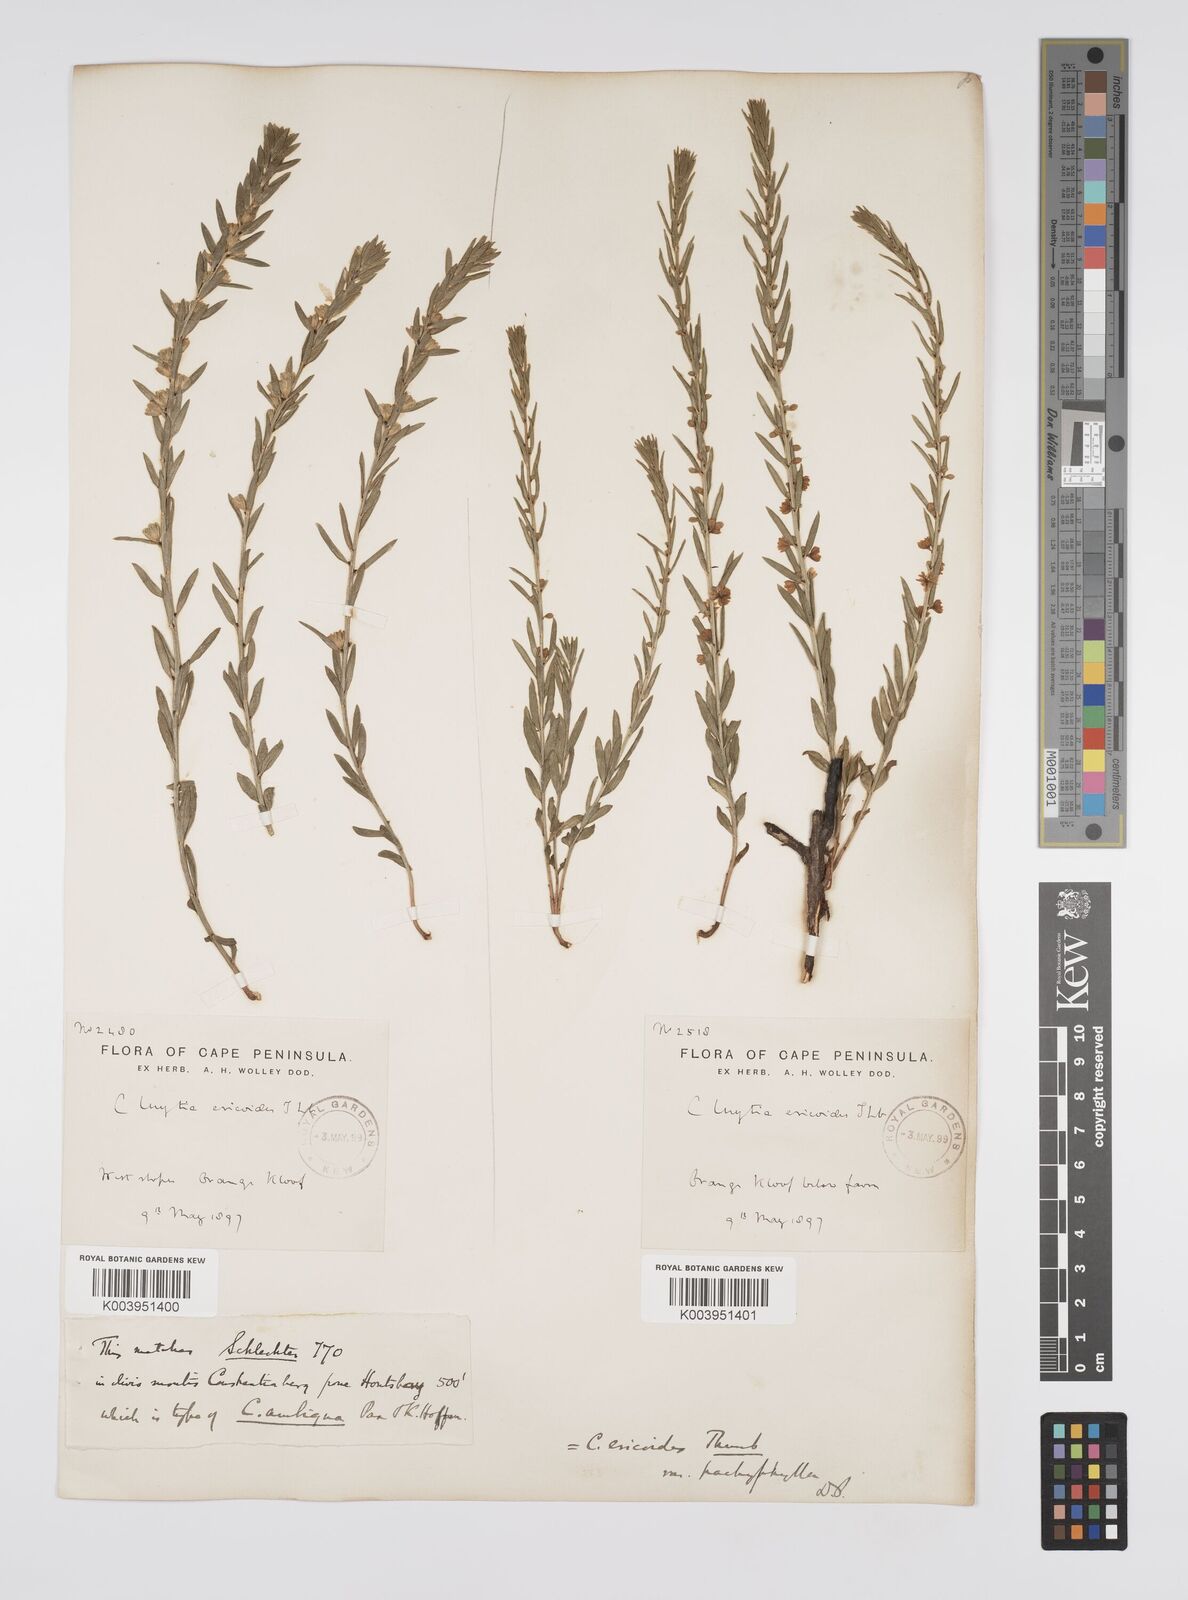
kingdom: Plantae
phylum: Tracheophyta
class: Magnoliopsida
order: Malpighiales
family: Peraceae
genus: Clutia
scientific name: Clutia
